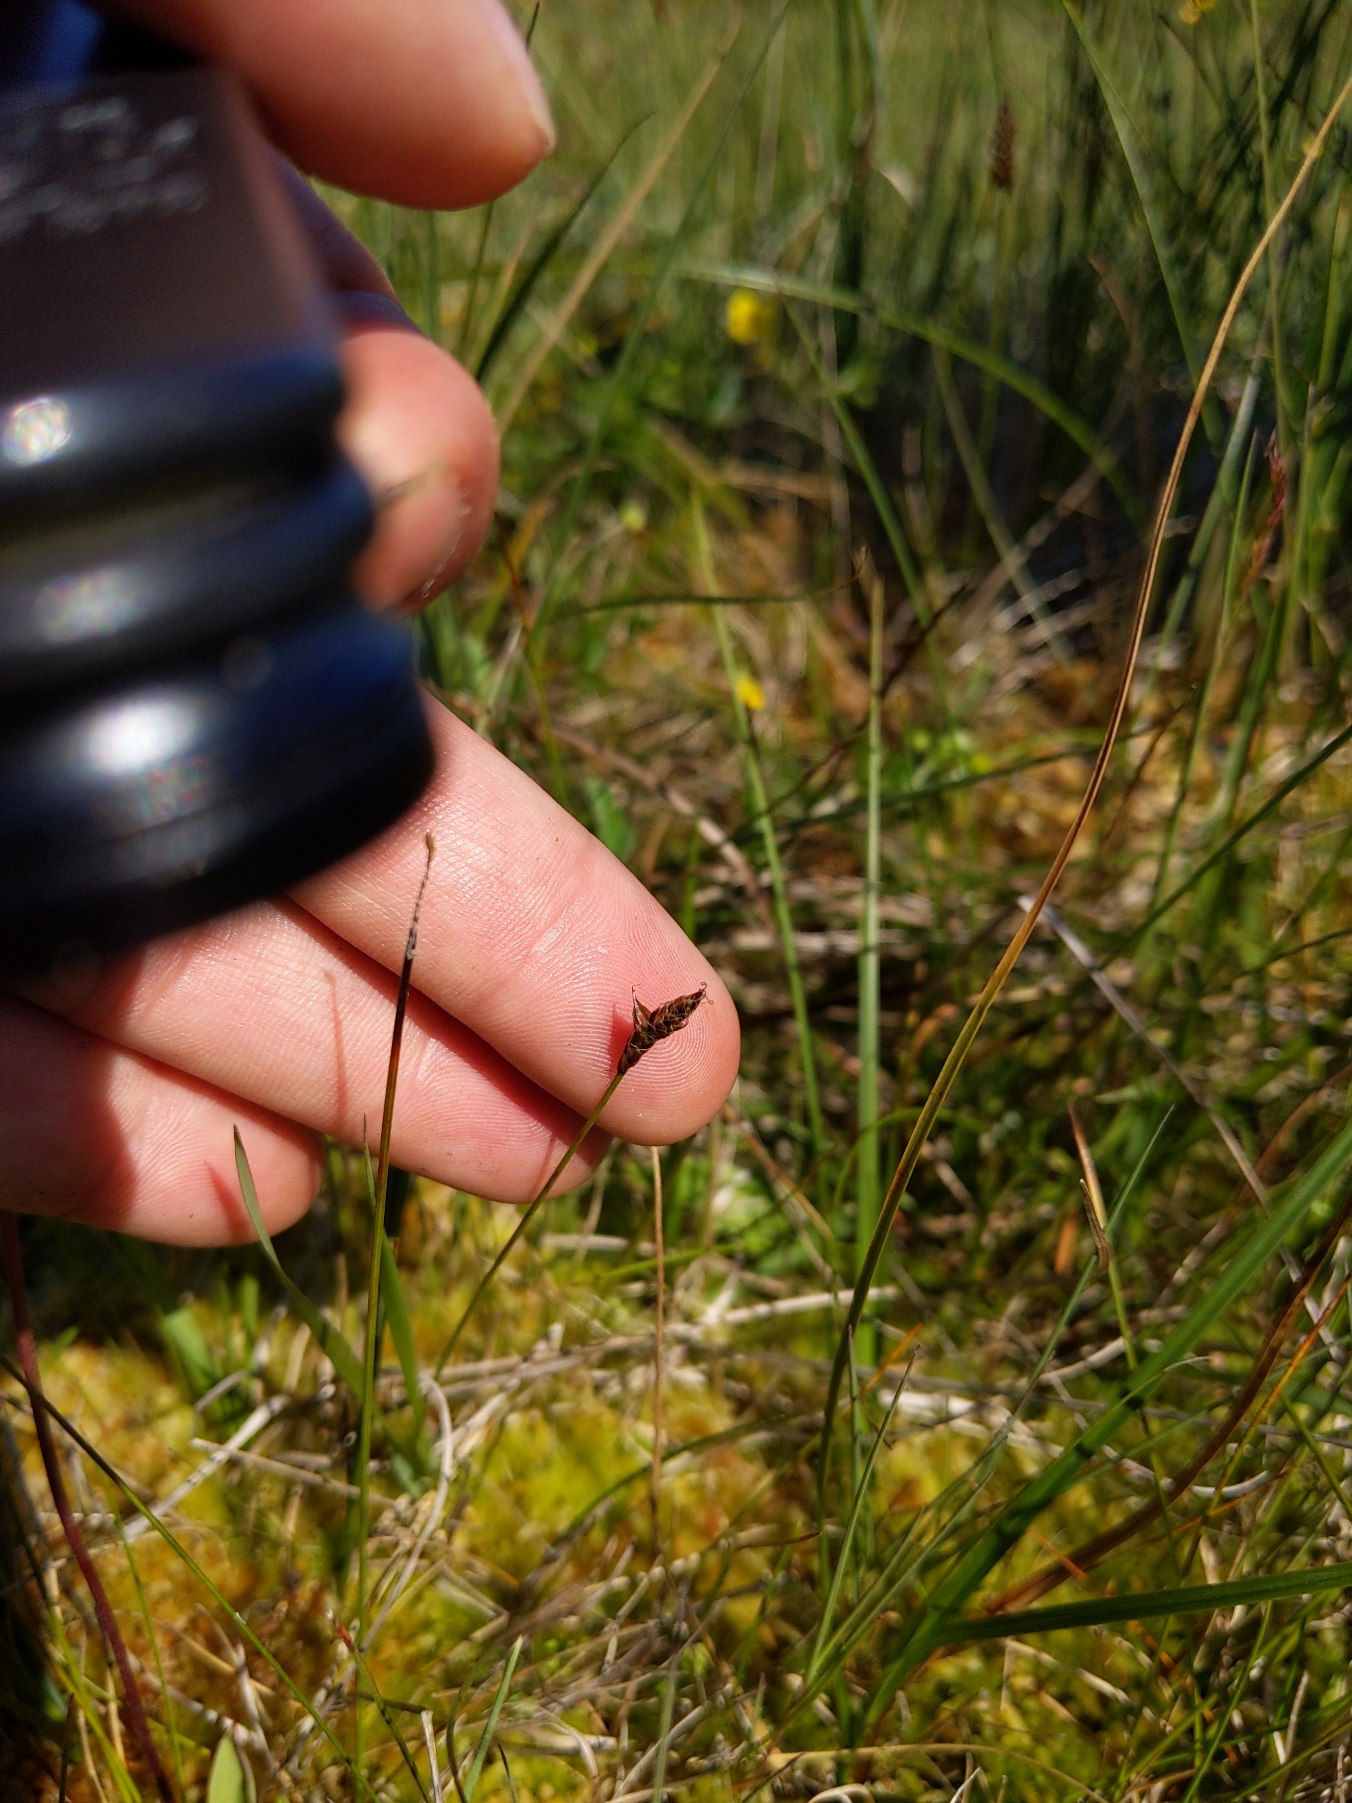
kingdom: Plantae
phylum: Tracheophyta
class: Liliopsida
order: Poales
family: Cyperaceae
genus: Carex
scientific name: Carex dioica
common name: Tvebo star
